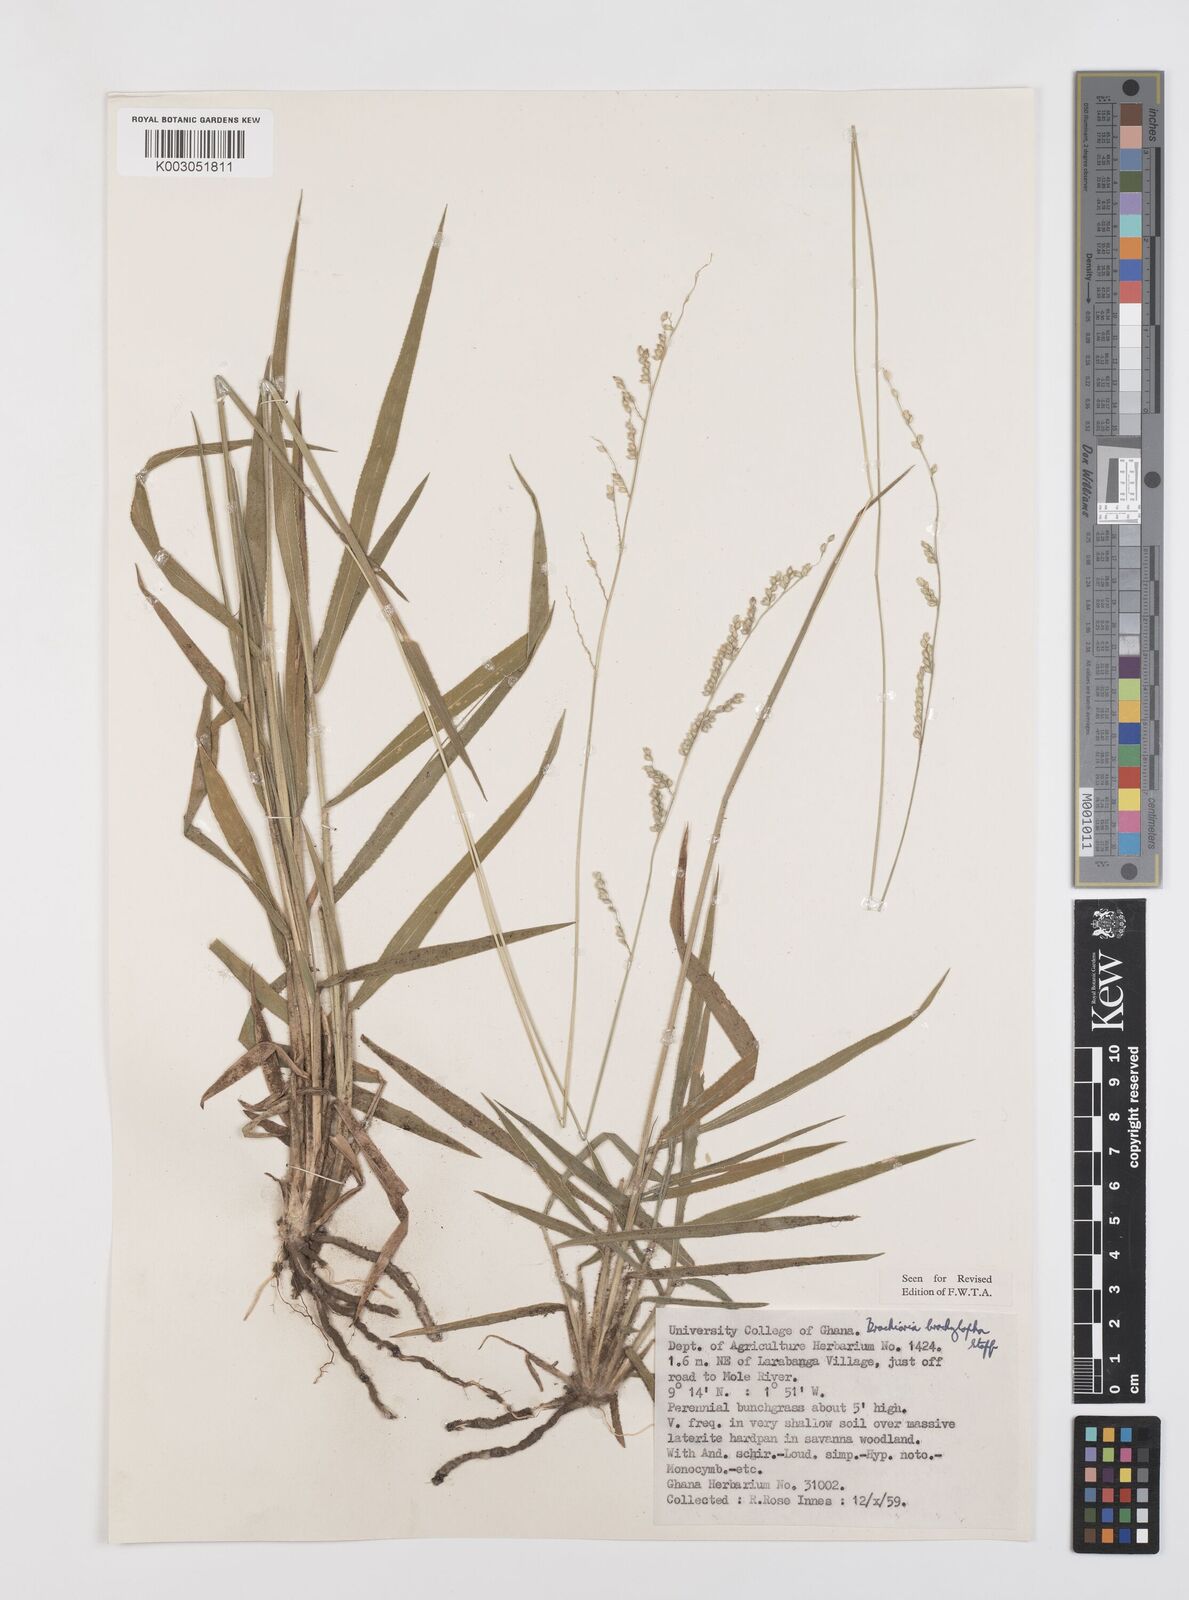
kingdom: Plantae
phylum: Tracheophyta
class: Liliopsida
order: Poales
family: Poaceae
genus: Urochloa
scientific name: Urochloa serrata
